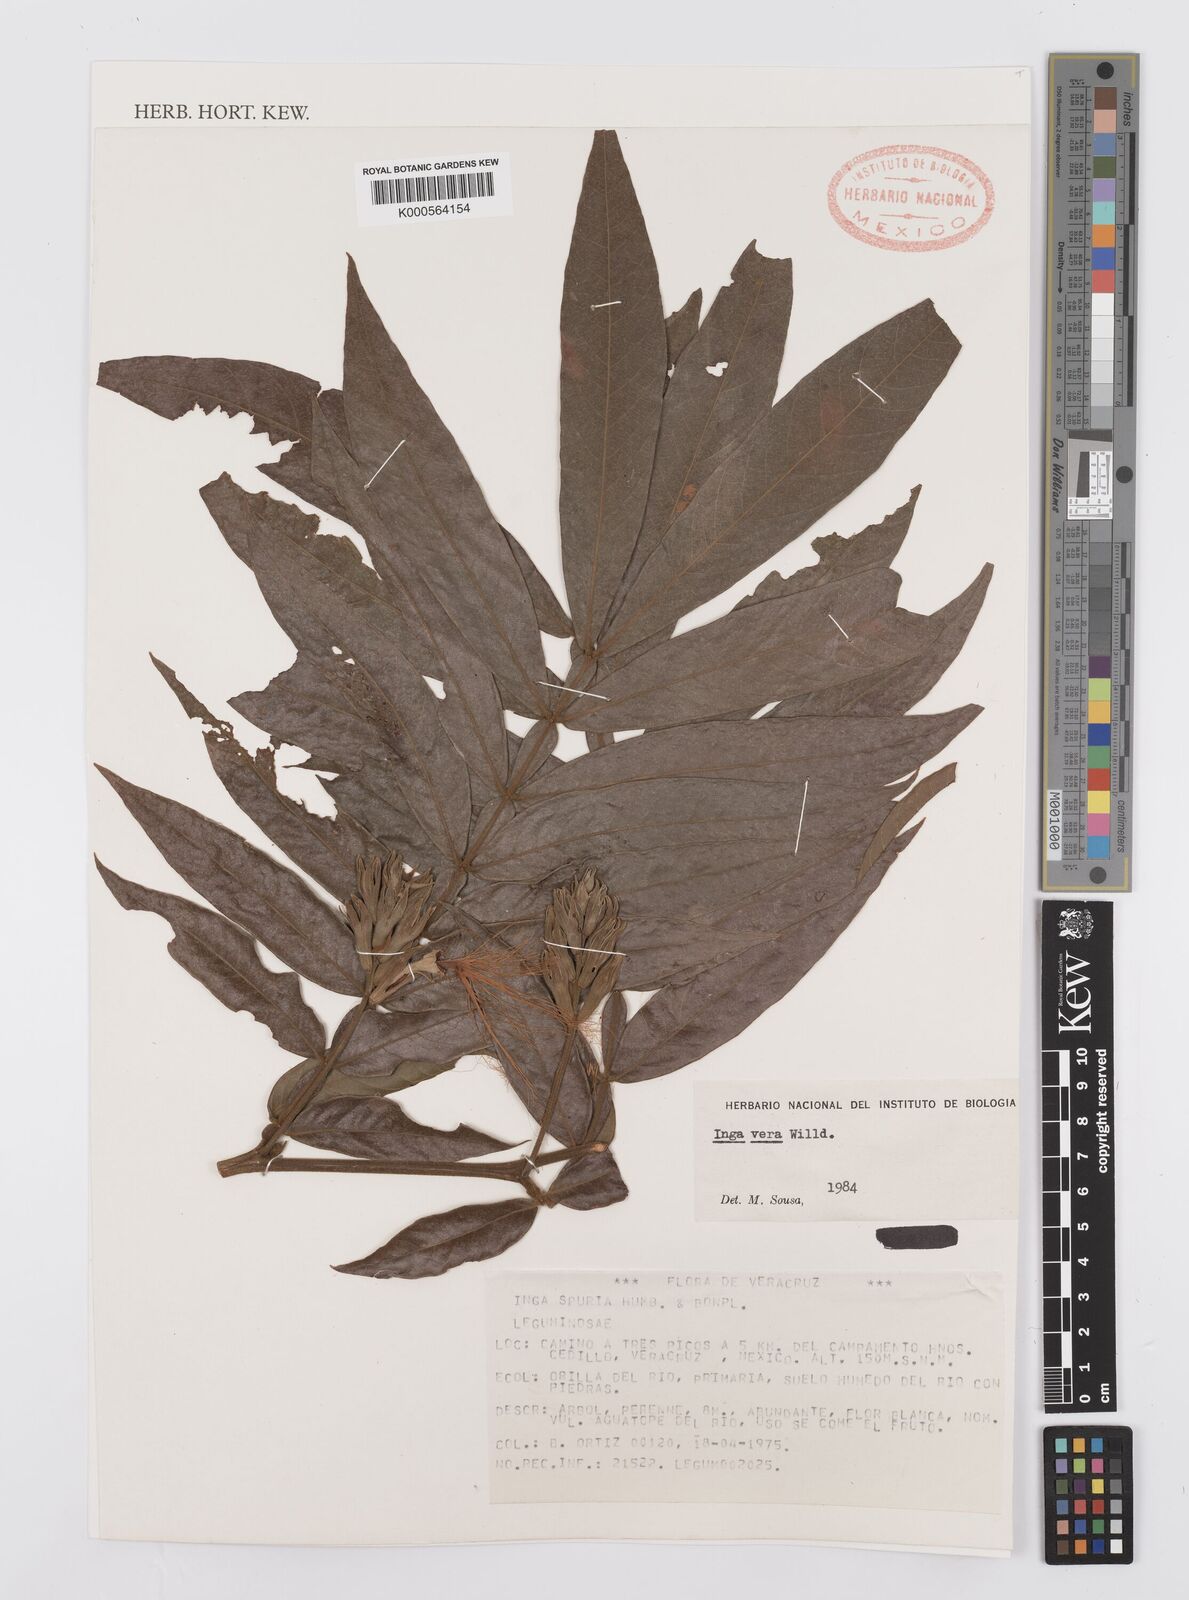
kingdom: Plantae
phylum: Tracheophyta
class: Magnoliopsida
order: Fabales
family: Fabaceae
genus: Inga
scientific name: Inga vera
